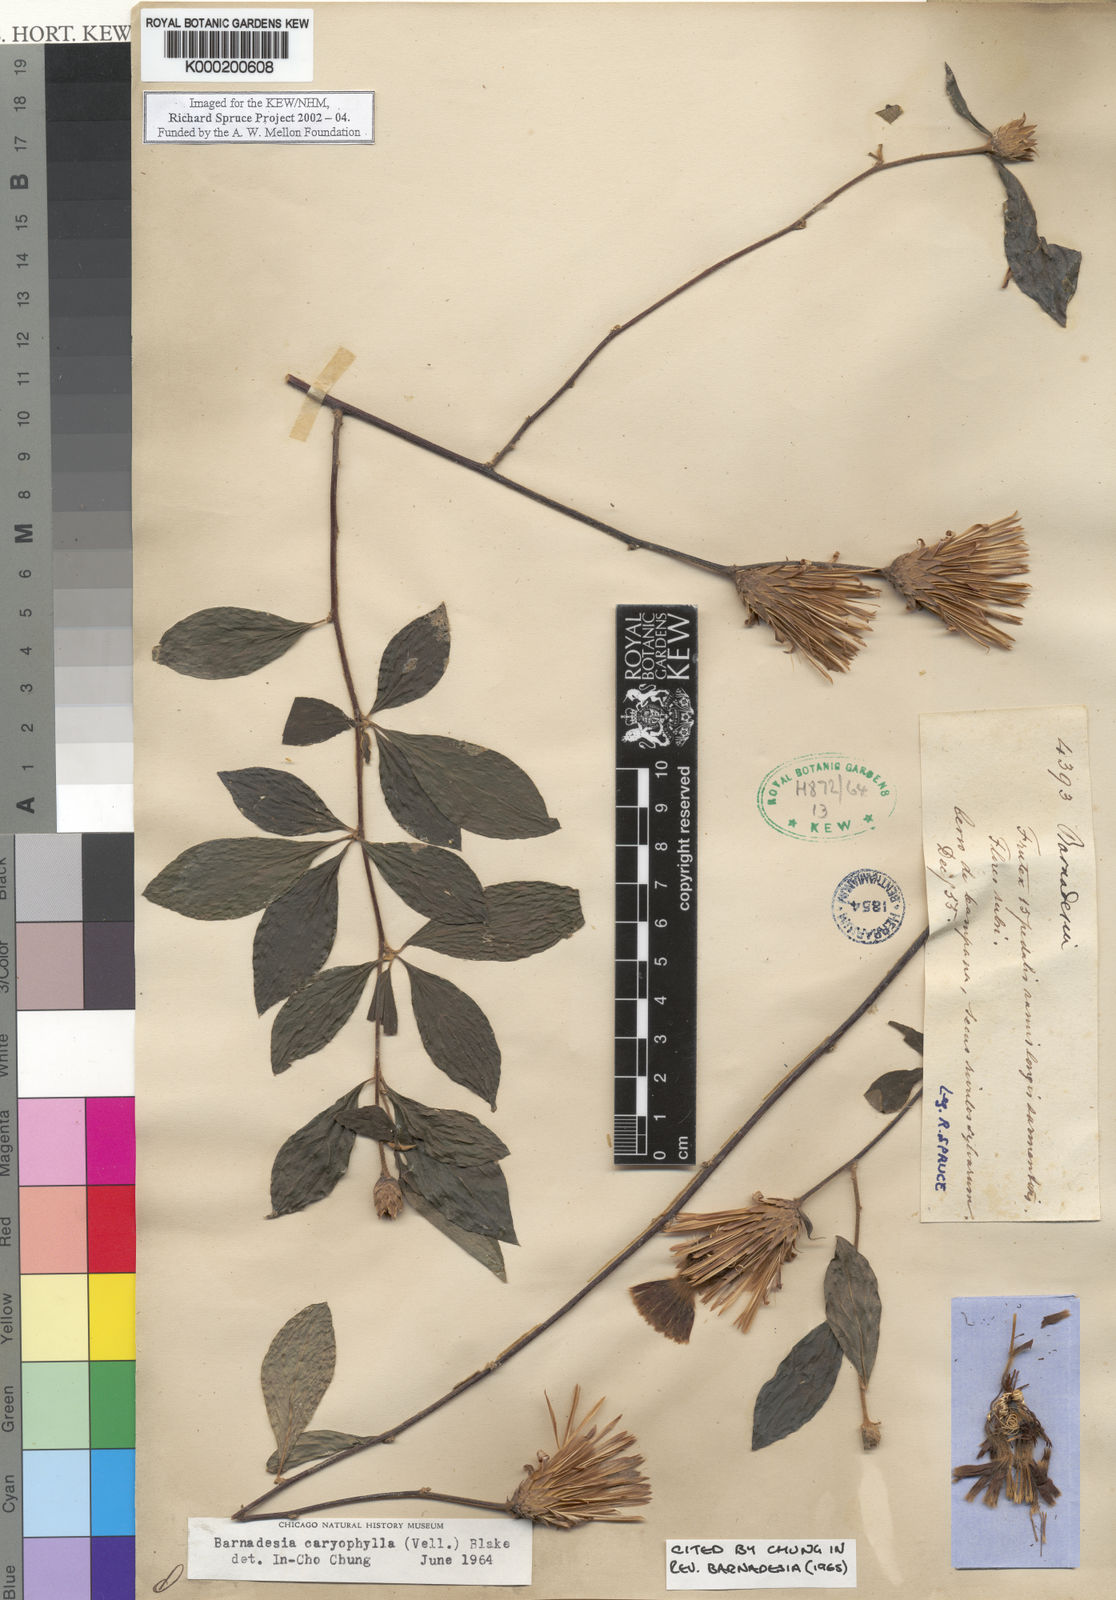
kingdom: Plantae
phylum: Tracheophyta
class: Magnoliopsida
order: Asterales
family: Asteraceae
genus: Barnadesia
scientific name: Barnadesia caryophylla
